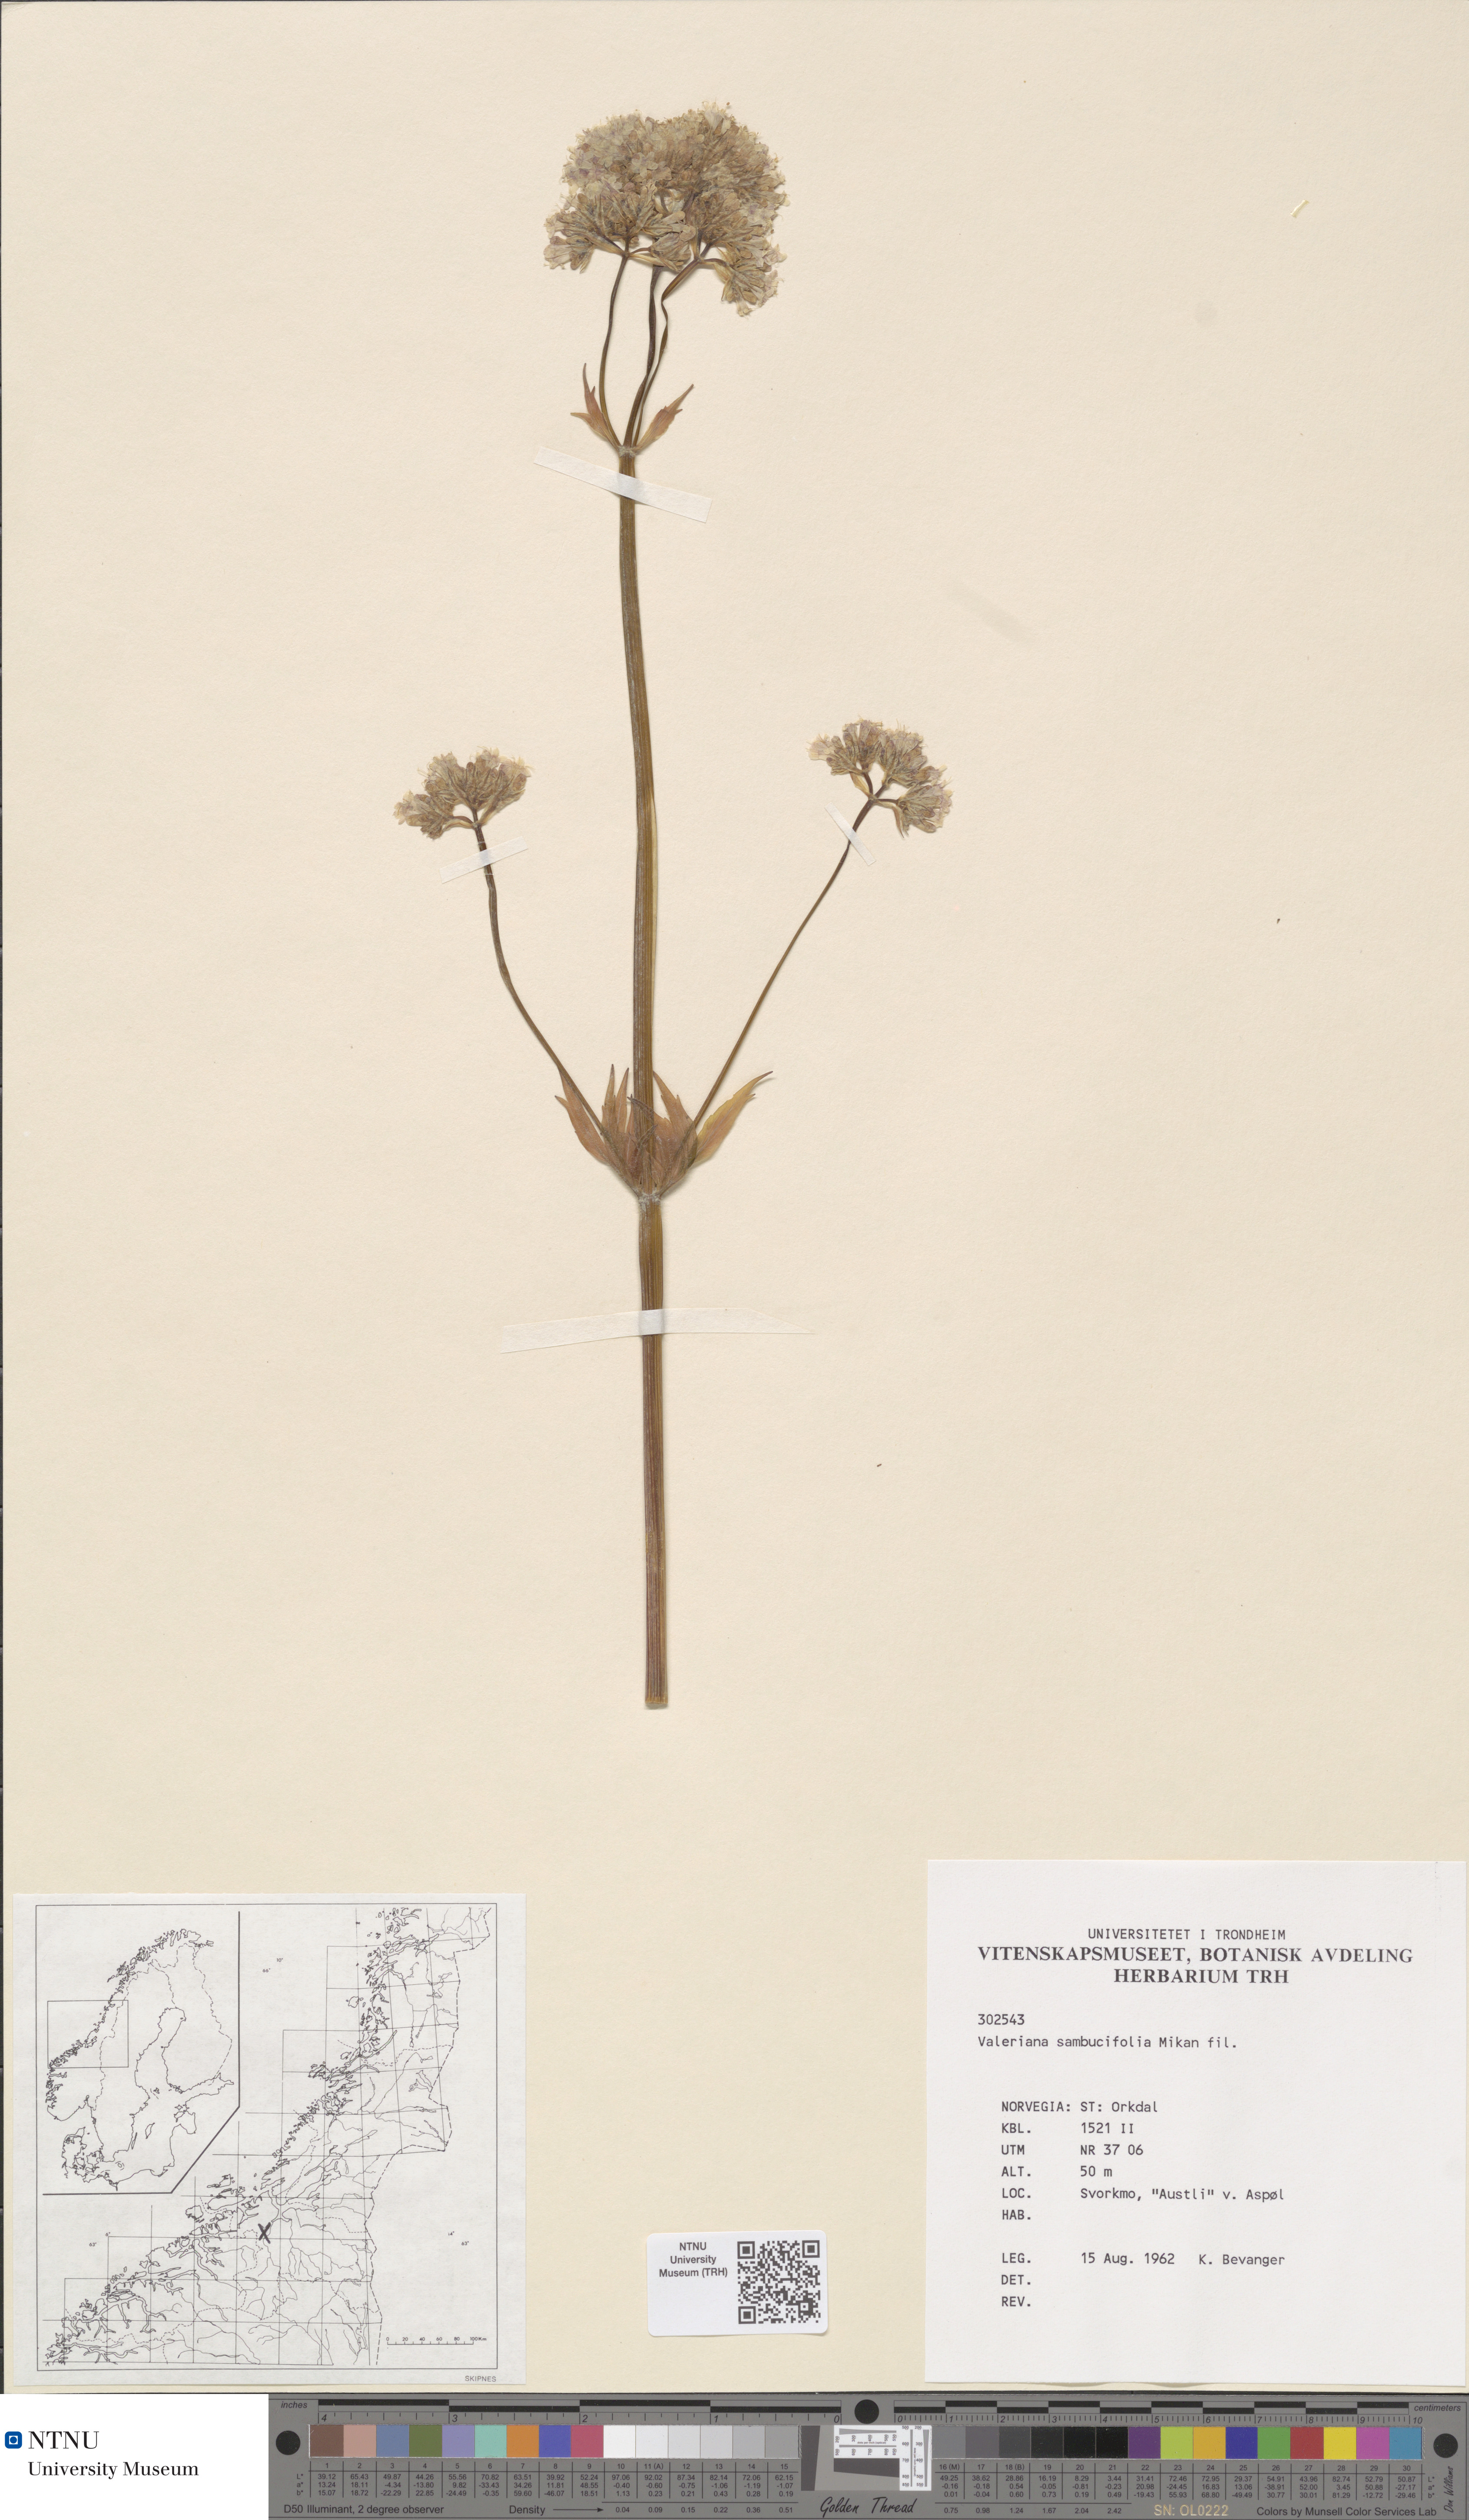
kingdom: Plantae
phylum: Tracheophyta
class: Magnoliopsida
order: Dipsacales
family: Caprifoliaceae
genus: Valeriana
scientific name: Valeriana excelsa
